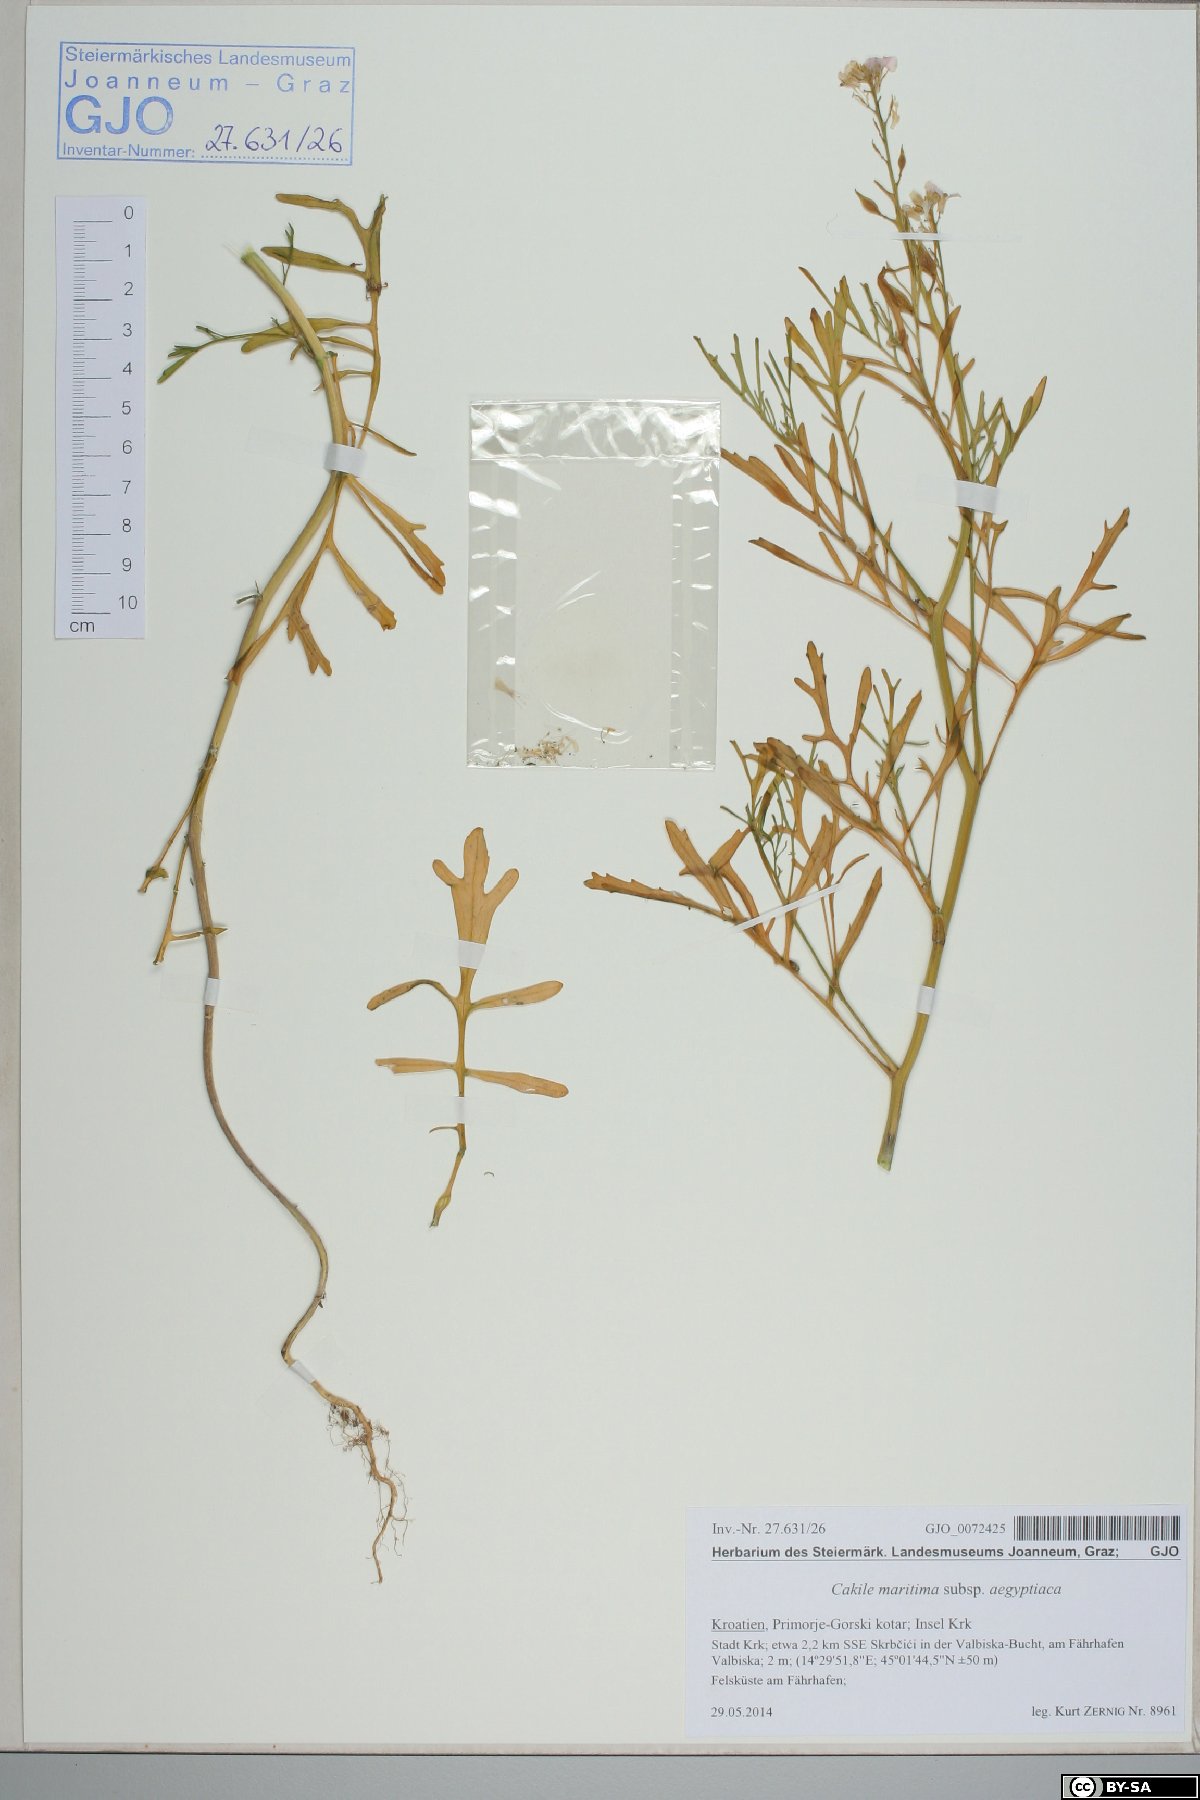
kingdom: Plantae
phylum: Tracheophyta
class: Magnoliopsida
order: Brassicales
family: Brassicaceae
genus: Cakile
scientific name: Cakile maritima
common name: Sea rocket
